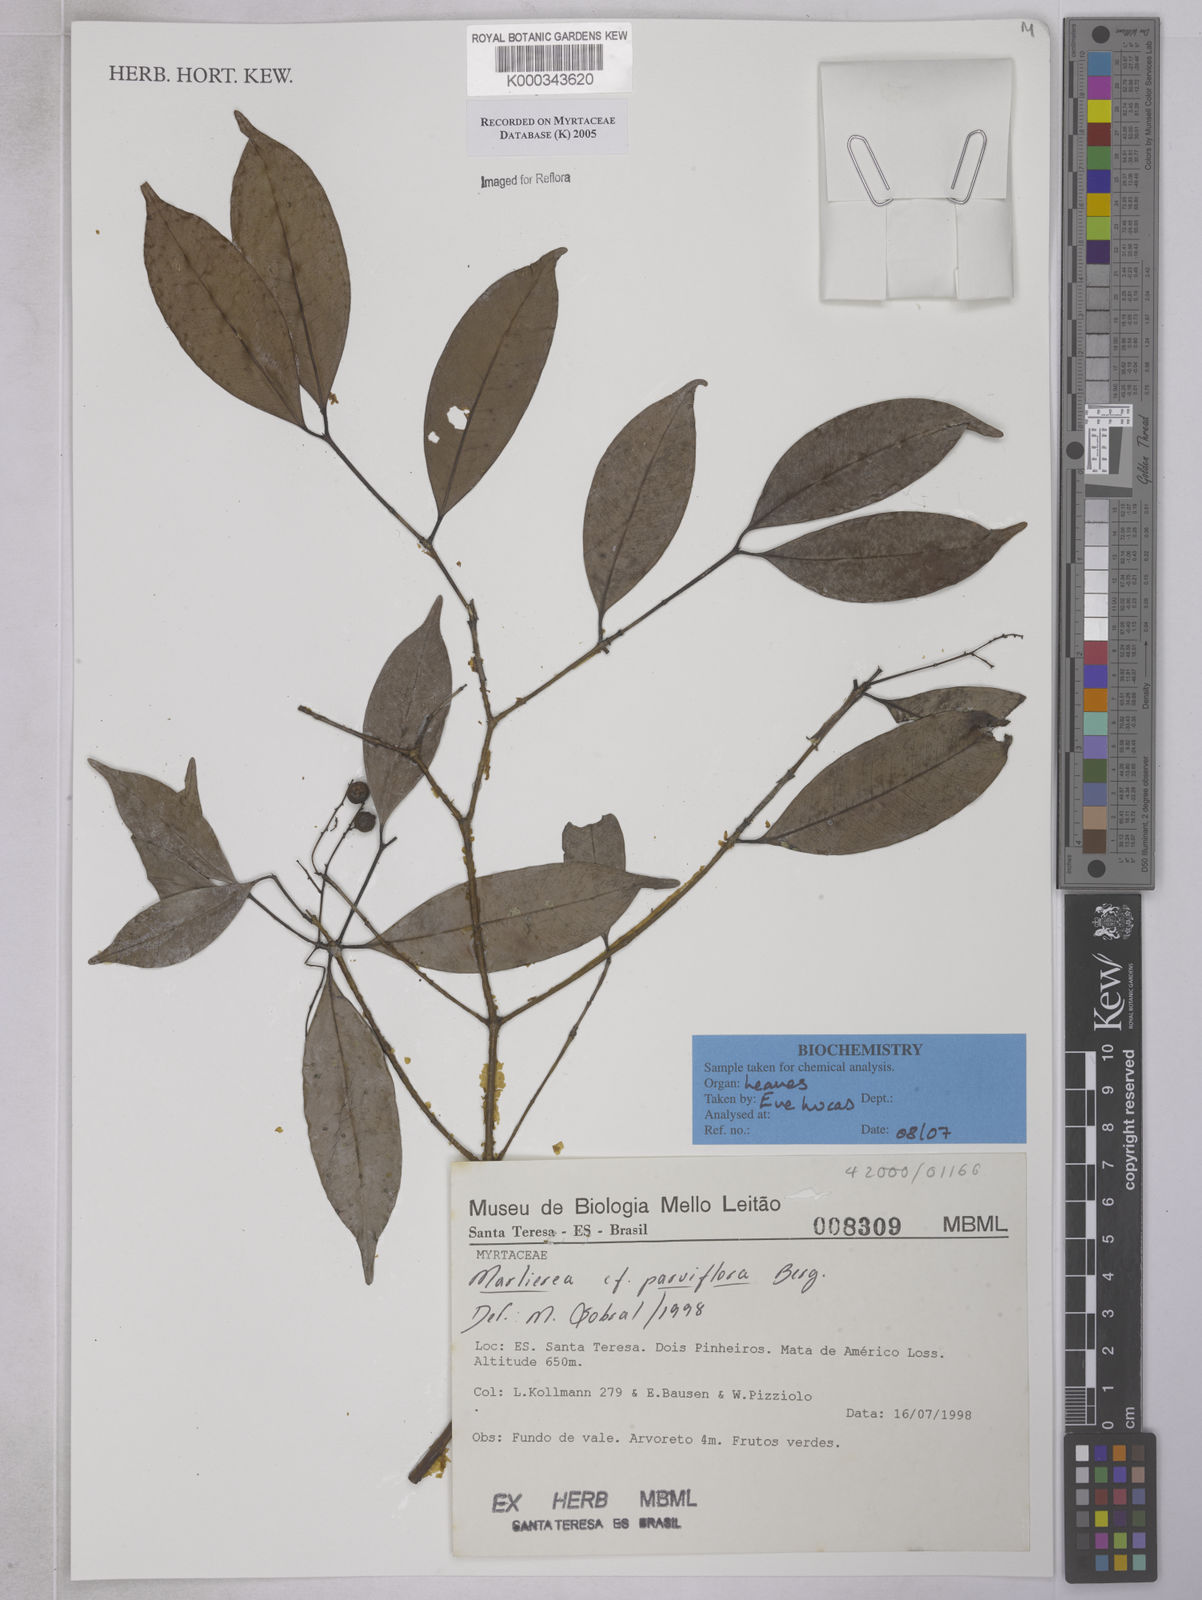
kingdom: Plantae
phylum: Tracheophyta
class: Magnoliopsida
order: Myrtales
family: Myrtaceae
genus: Marlierea
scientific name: Marlierea
